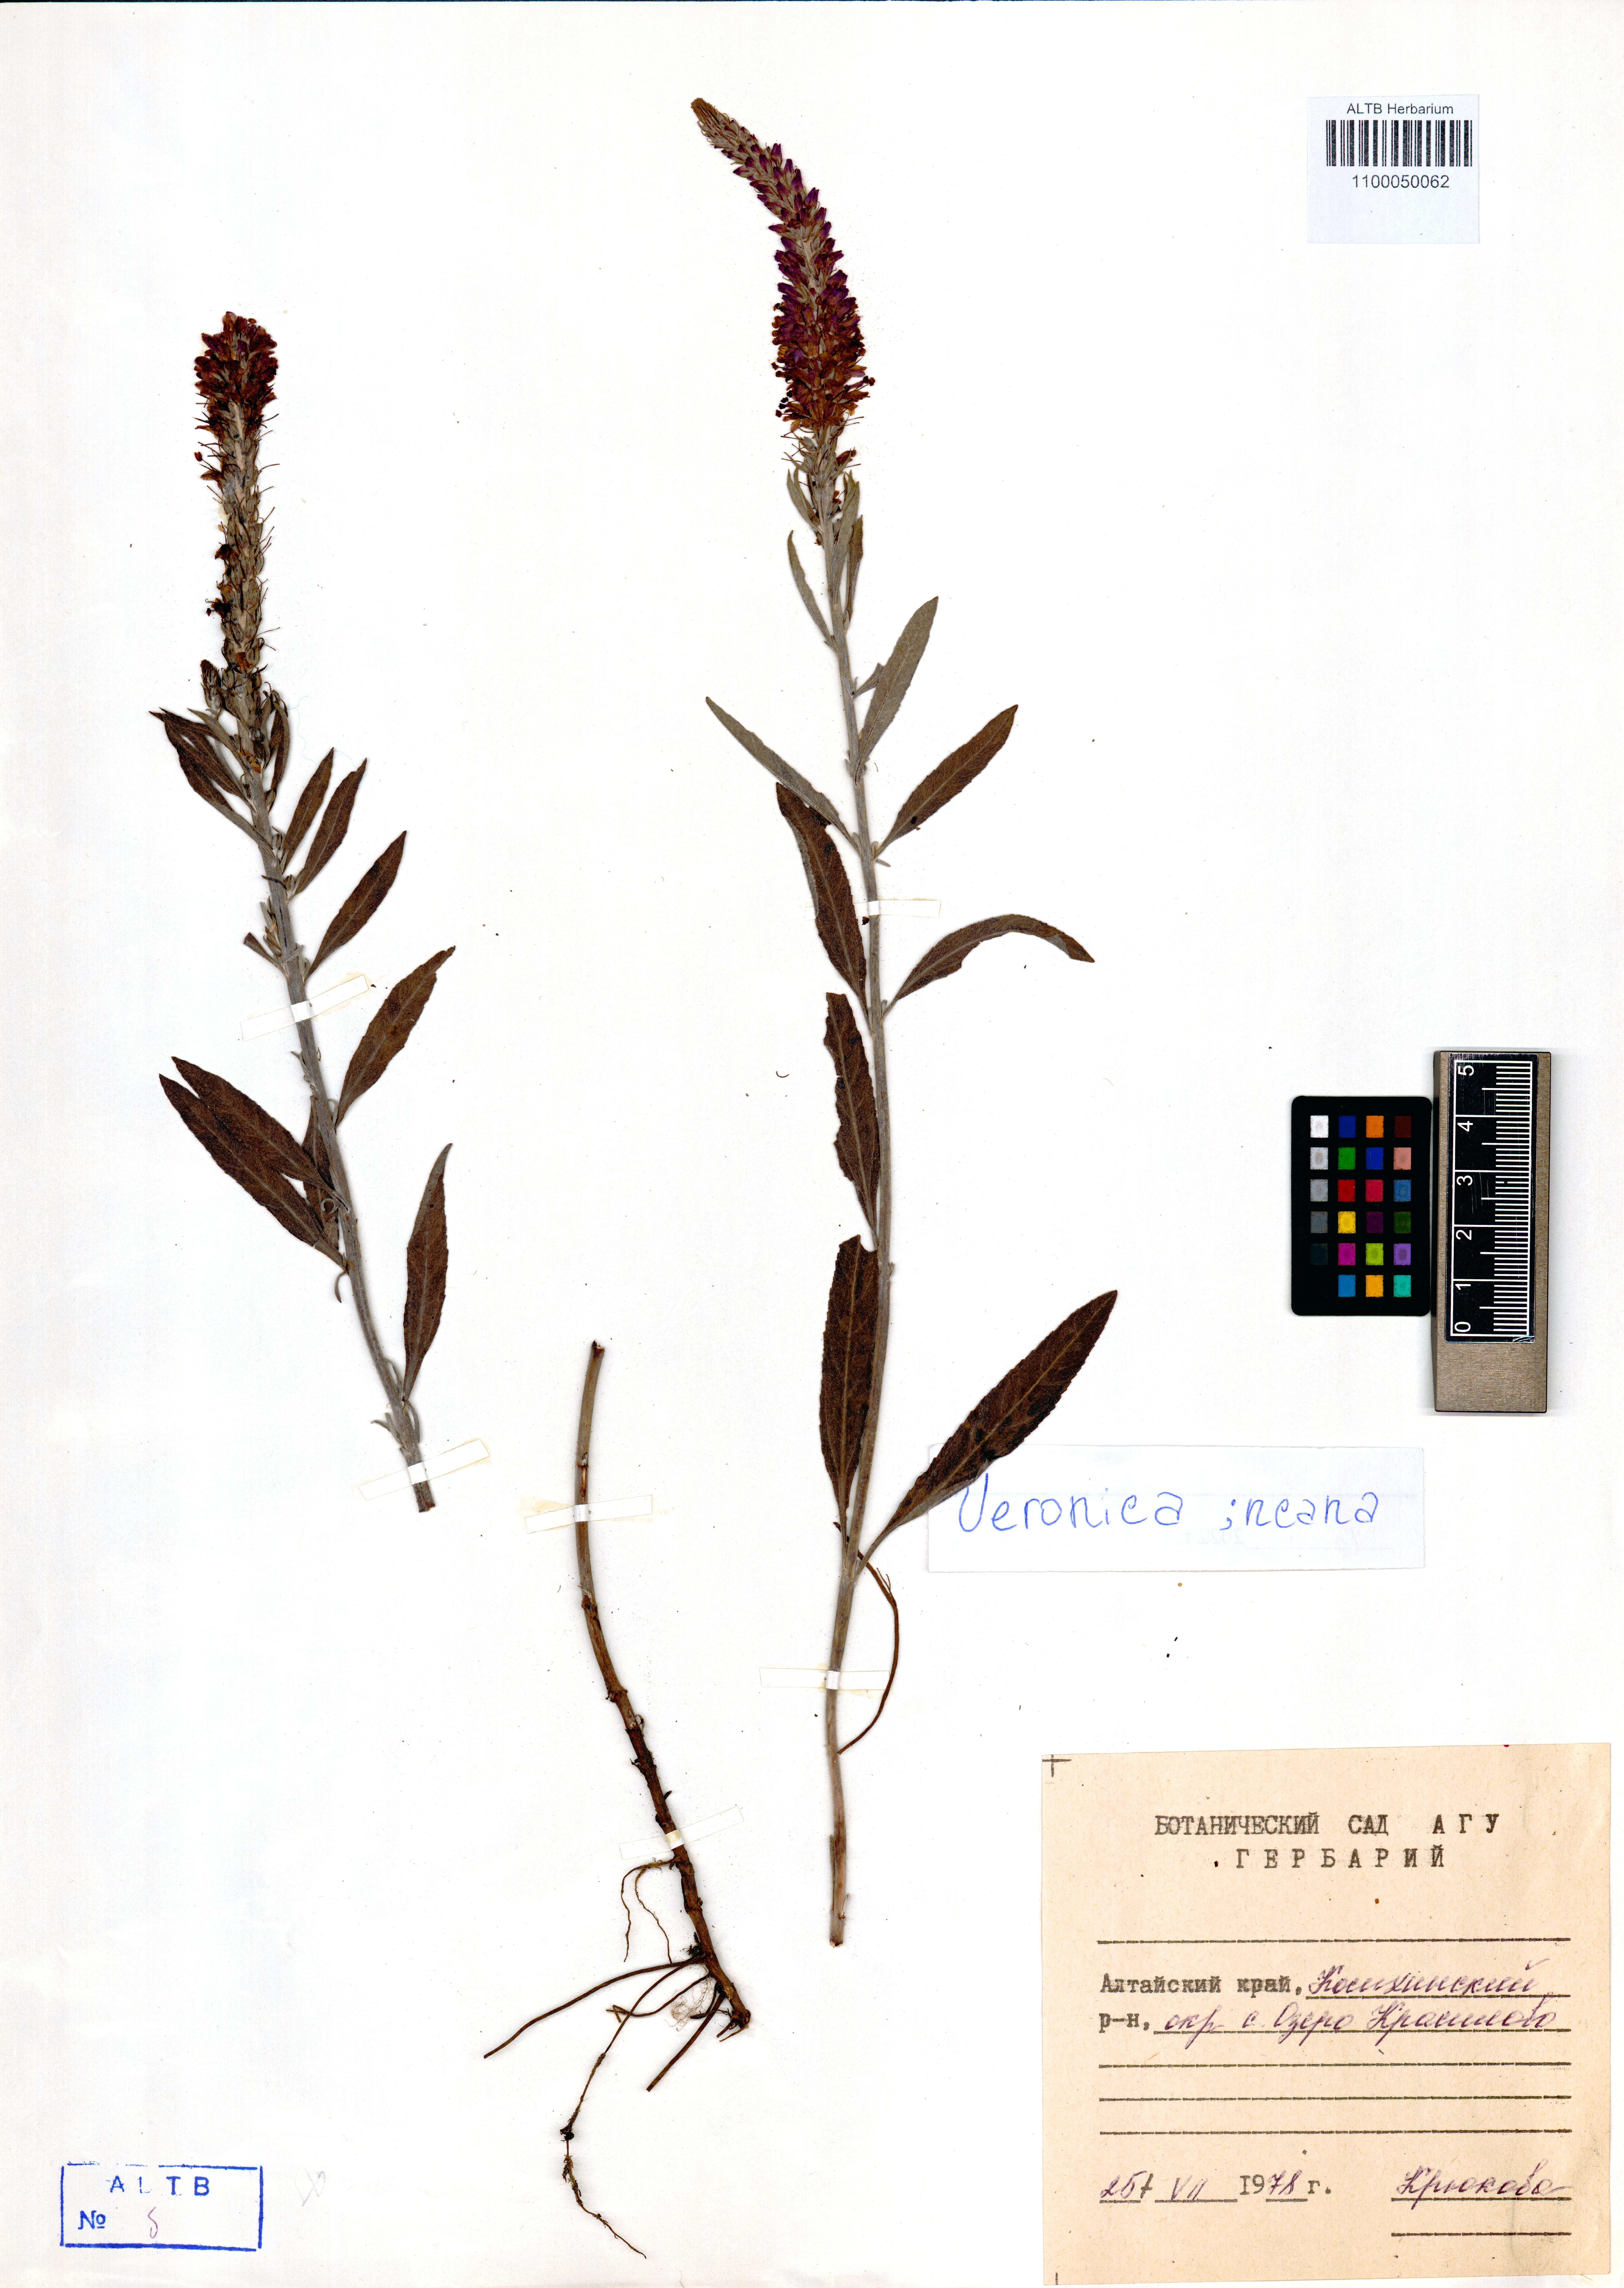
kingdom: Plantae
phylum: Tracheophyta
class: Magnoliopsida
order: Lamiales
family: Plantaginaceae
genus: Veronica
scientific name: Veronica incana
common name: Silver speedwell
